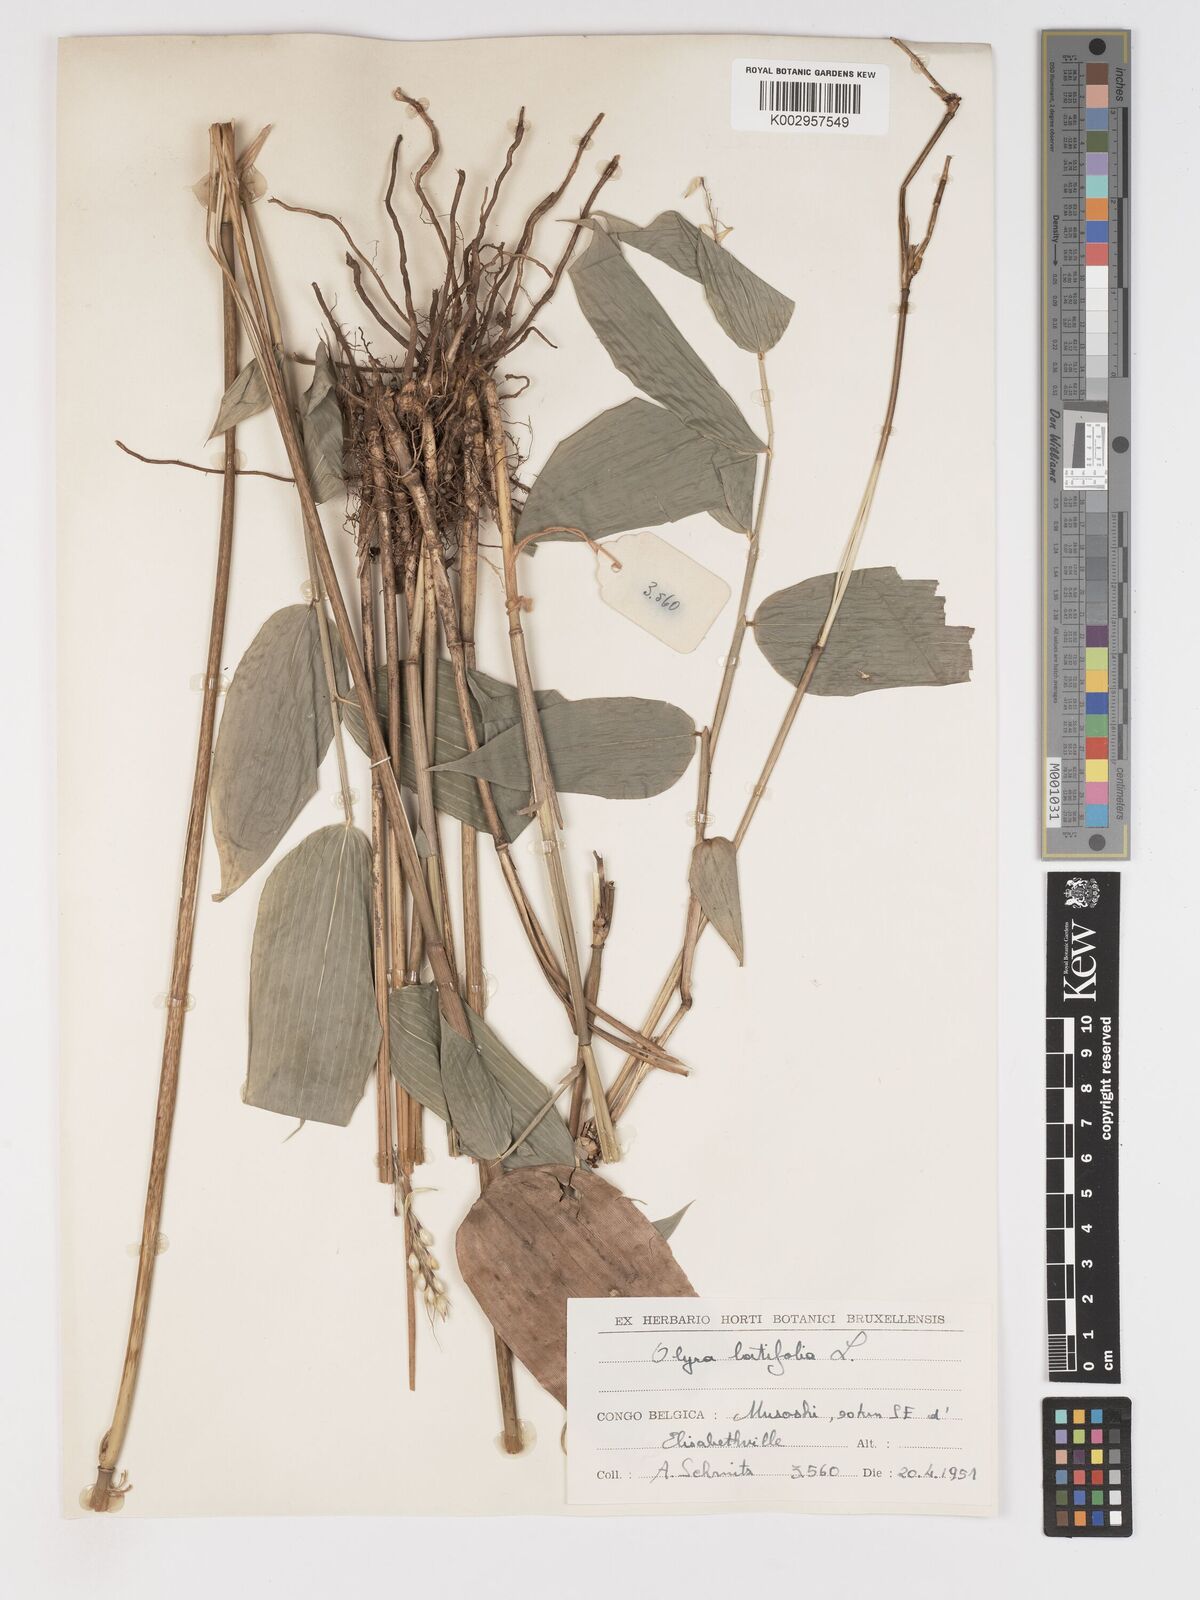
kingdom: Plantae
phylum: Tracheophyta
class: Liliopsida
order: Poales
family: Poaceae
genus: Olyra
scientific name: Olyra latifolia
